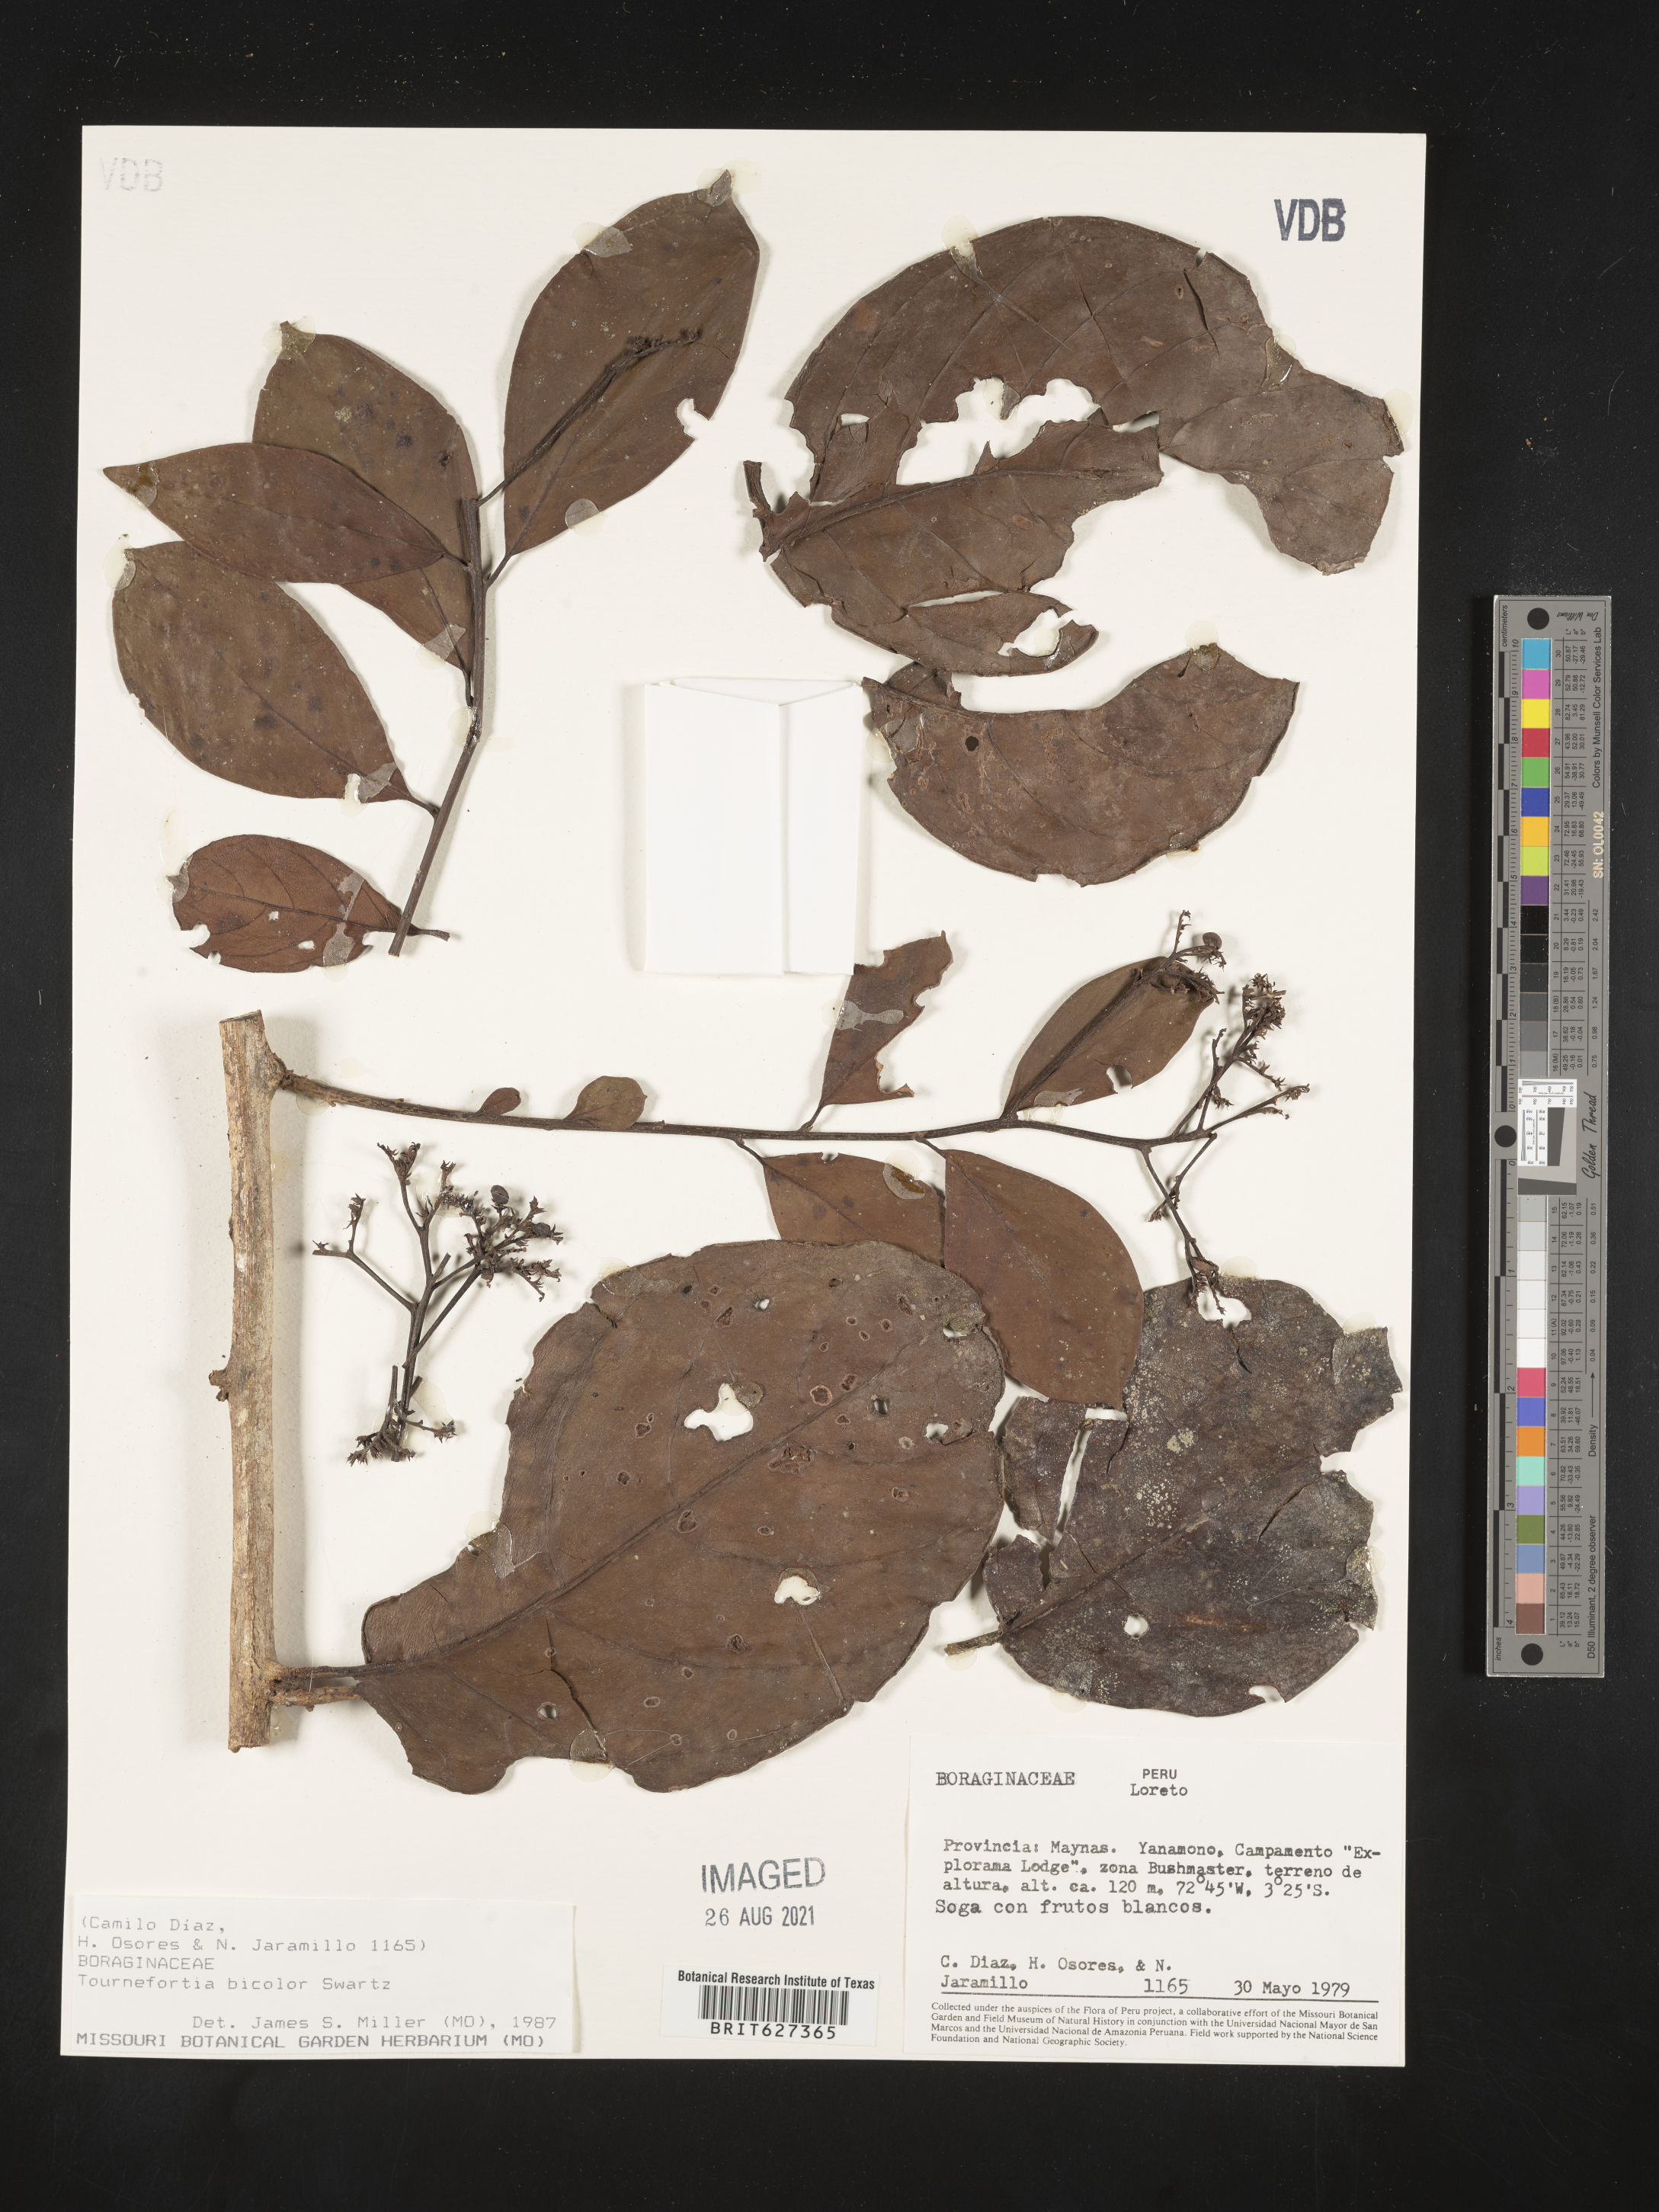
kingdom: Plantae
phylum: Tracheophyta
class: Magnoliopsida
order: Boraginales
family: Heliotropiaceae
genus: Heliotropium
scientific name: Heliotropium verdcourtii
